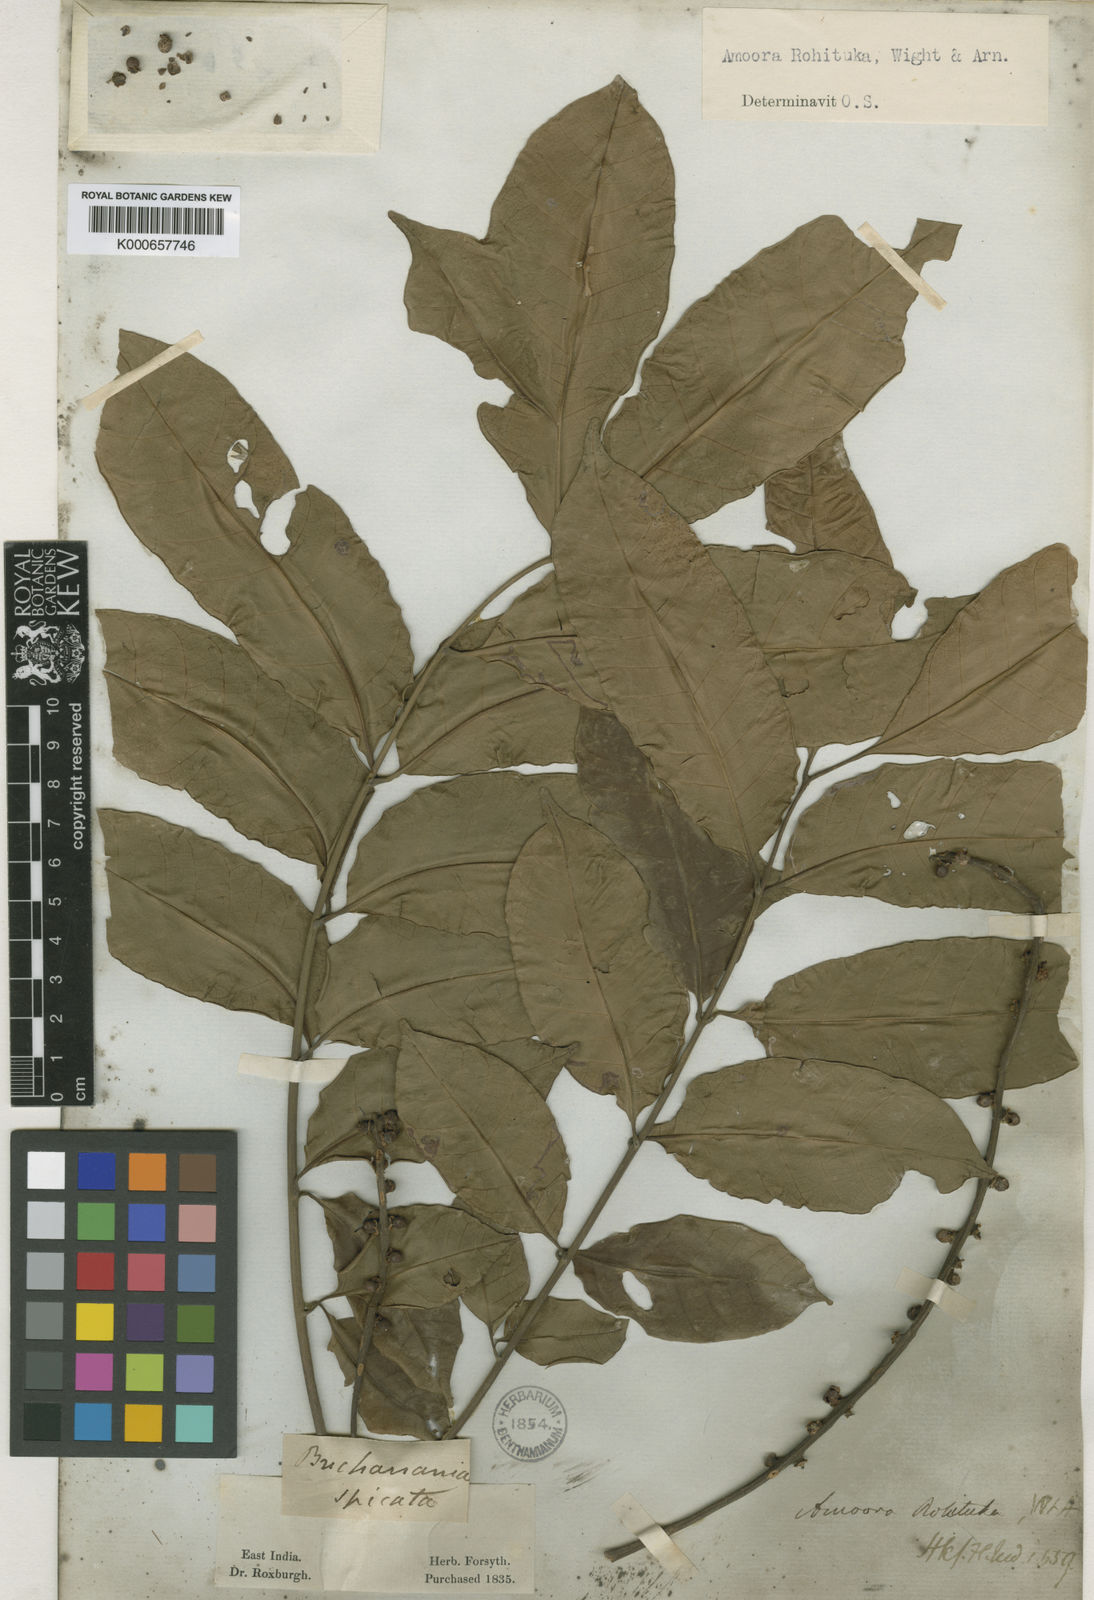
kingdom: Plantae
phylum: Tracheophyta
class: Magnoliopsida
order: Sapindales
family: Meliaceae
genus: Aphanamixis
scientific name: Aphanamixis polystachya
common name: Pithraj tree
